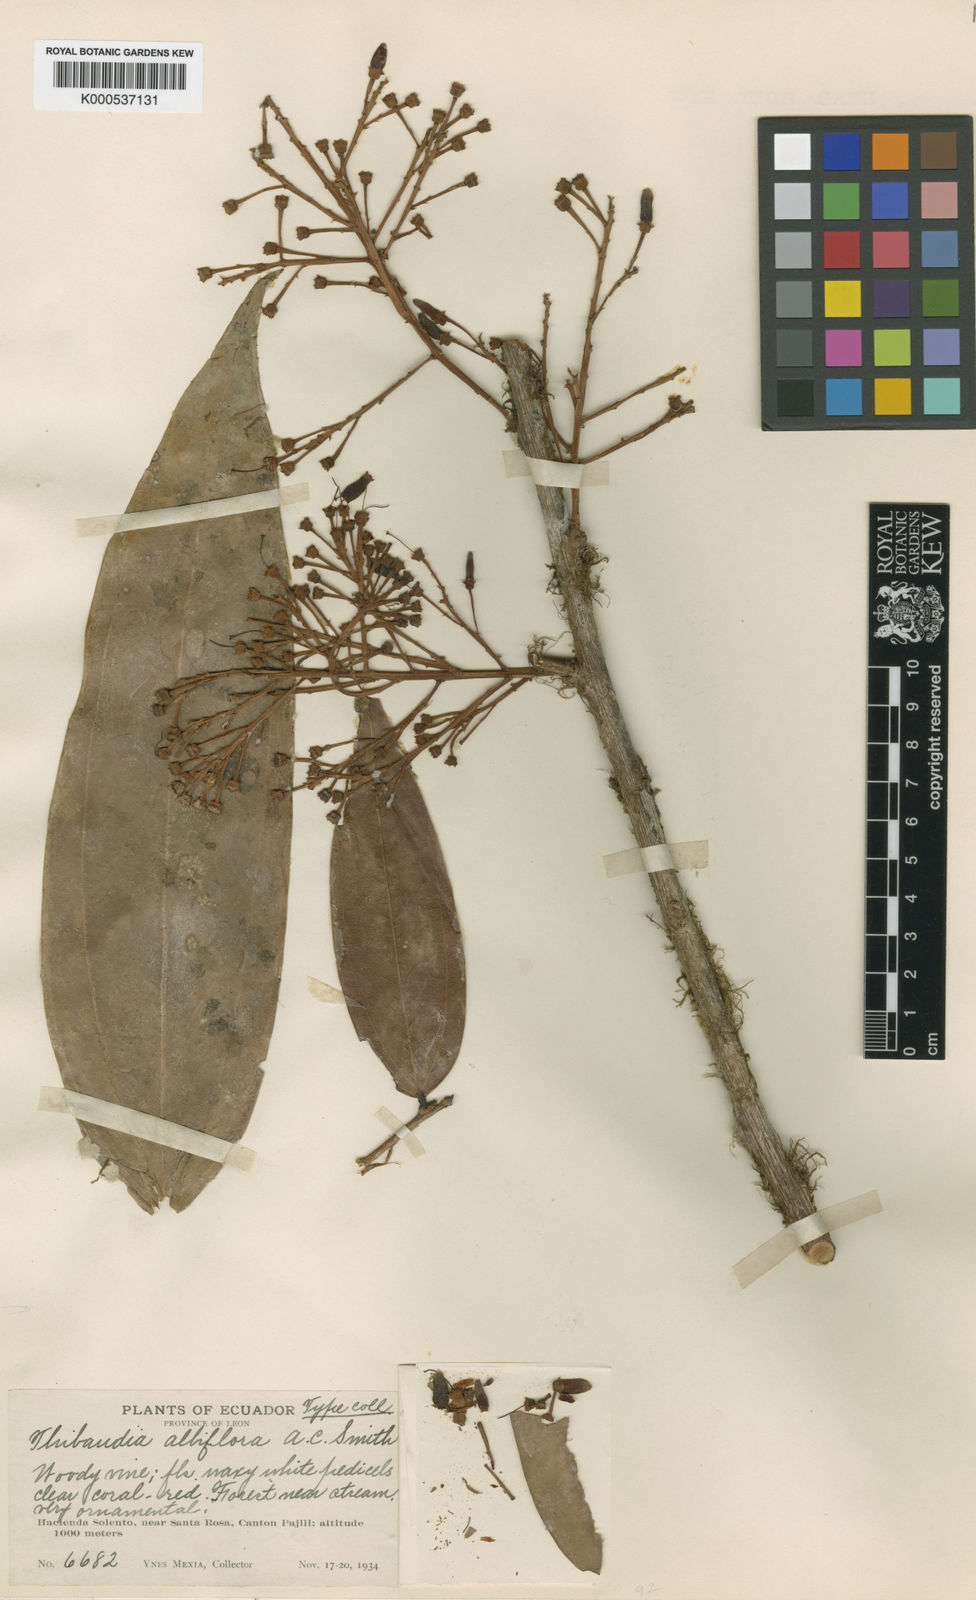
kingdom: Plantae
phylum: Tracheophyta
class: Magnoliopsida
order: Ericales
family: Ericaceae
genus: Thibaudia
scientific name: Thibaudia albiflora
